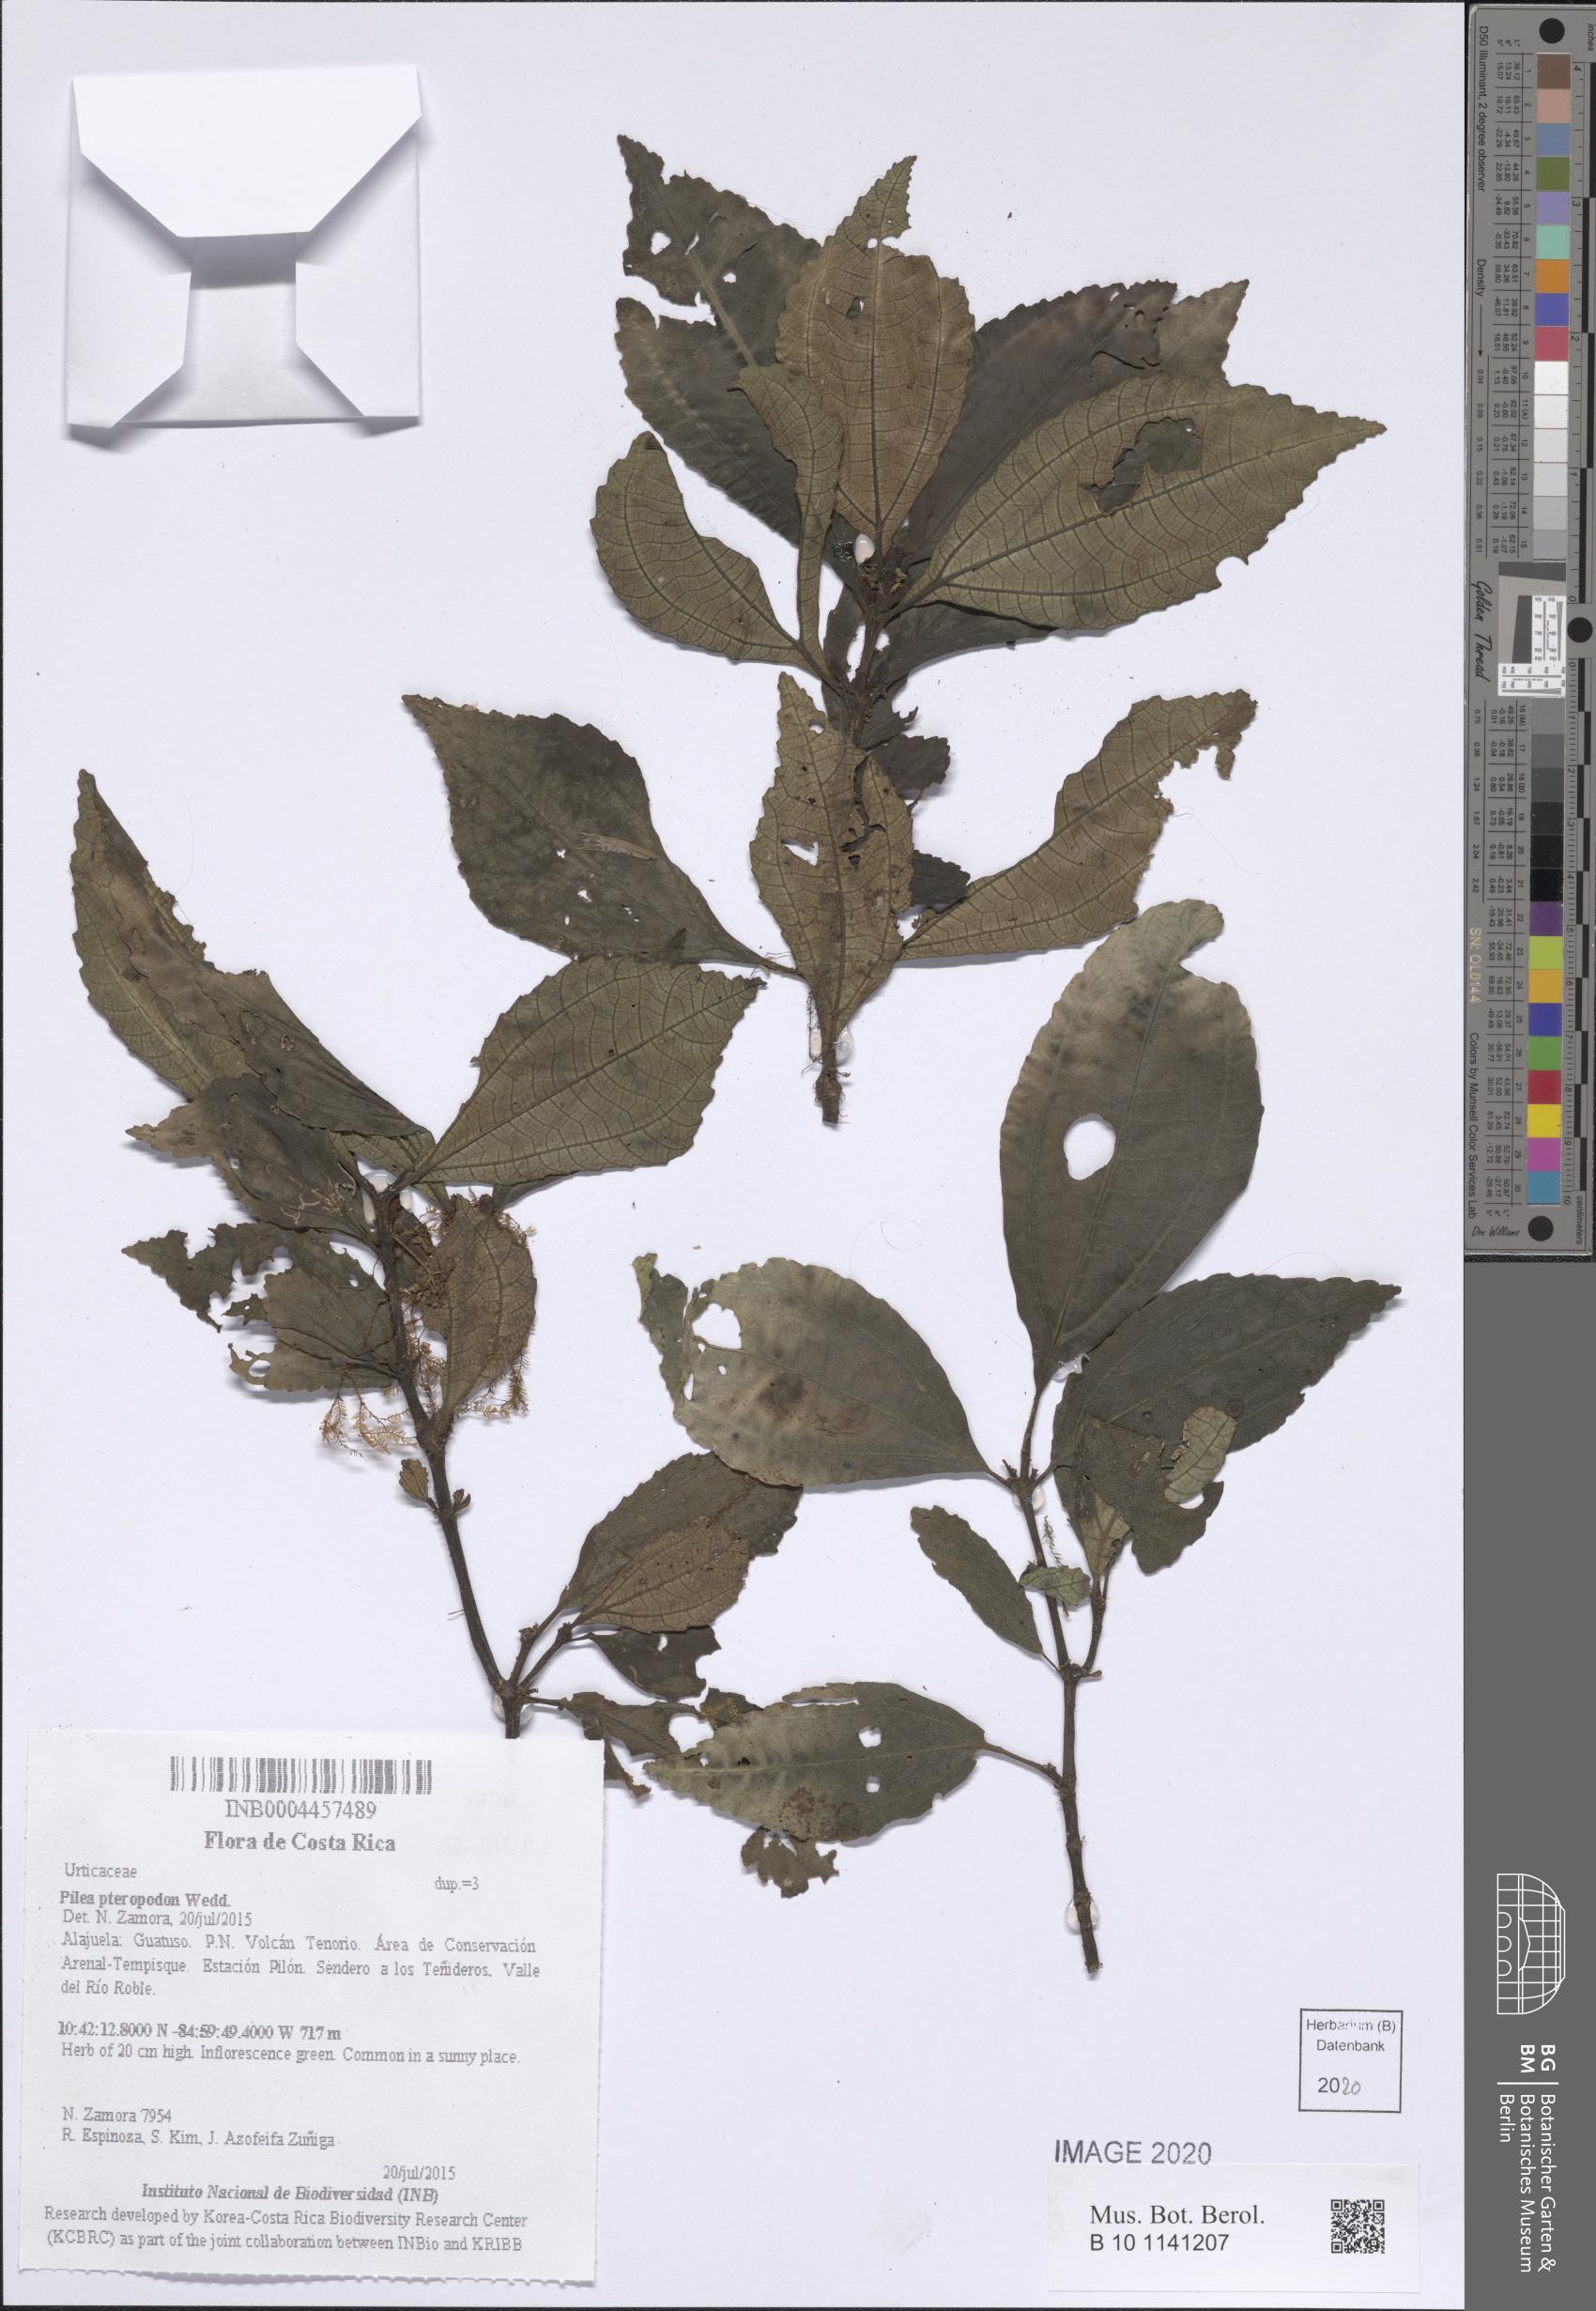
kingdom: Plantae
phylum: Tracheophyta
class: Magnoliopsida
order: Rosales
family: Urticaceae
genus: Pilea
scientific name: Pilea pteropodon
